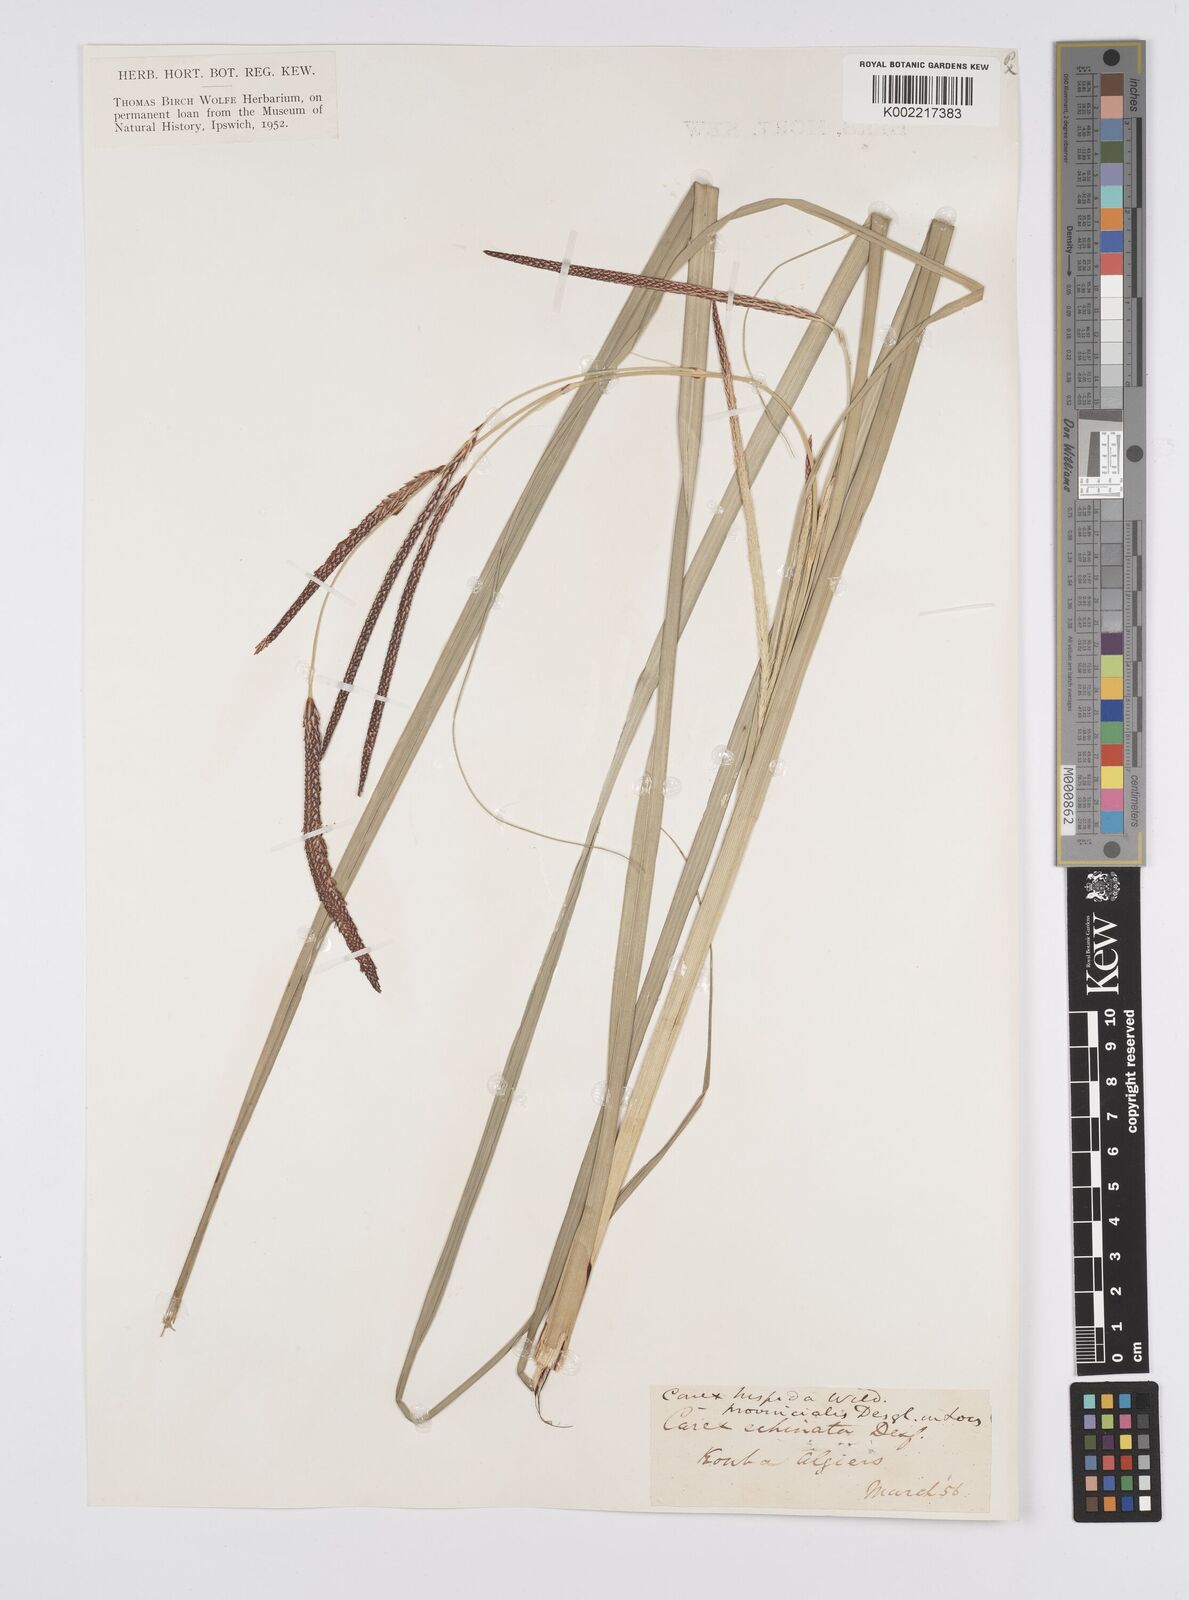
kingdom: Plantae
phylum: Tracheophyta
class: Liliopsida
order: Poales
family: Cyperaceae
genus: Carex
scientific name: Carex hispida
